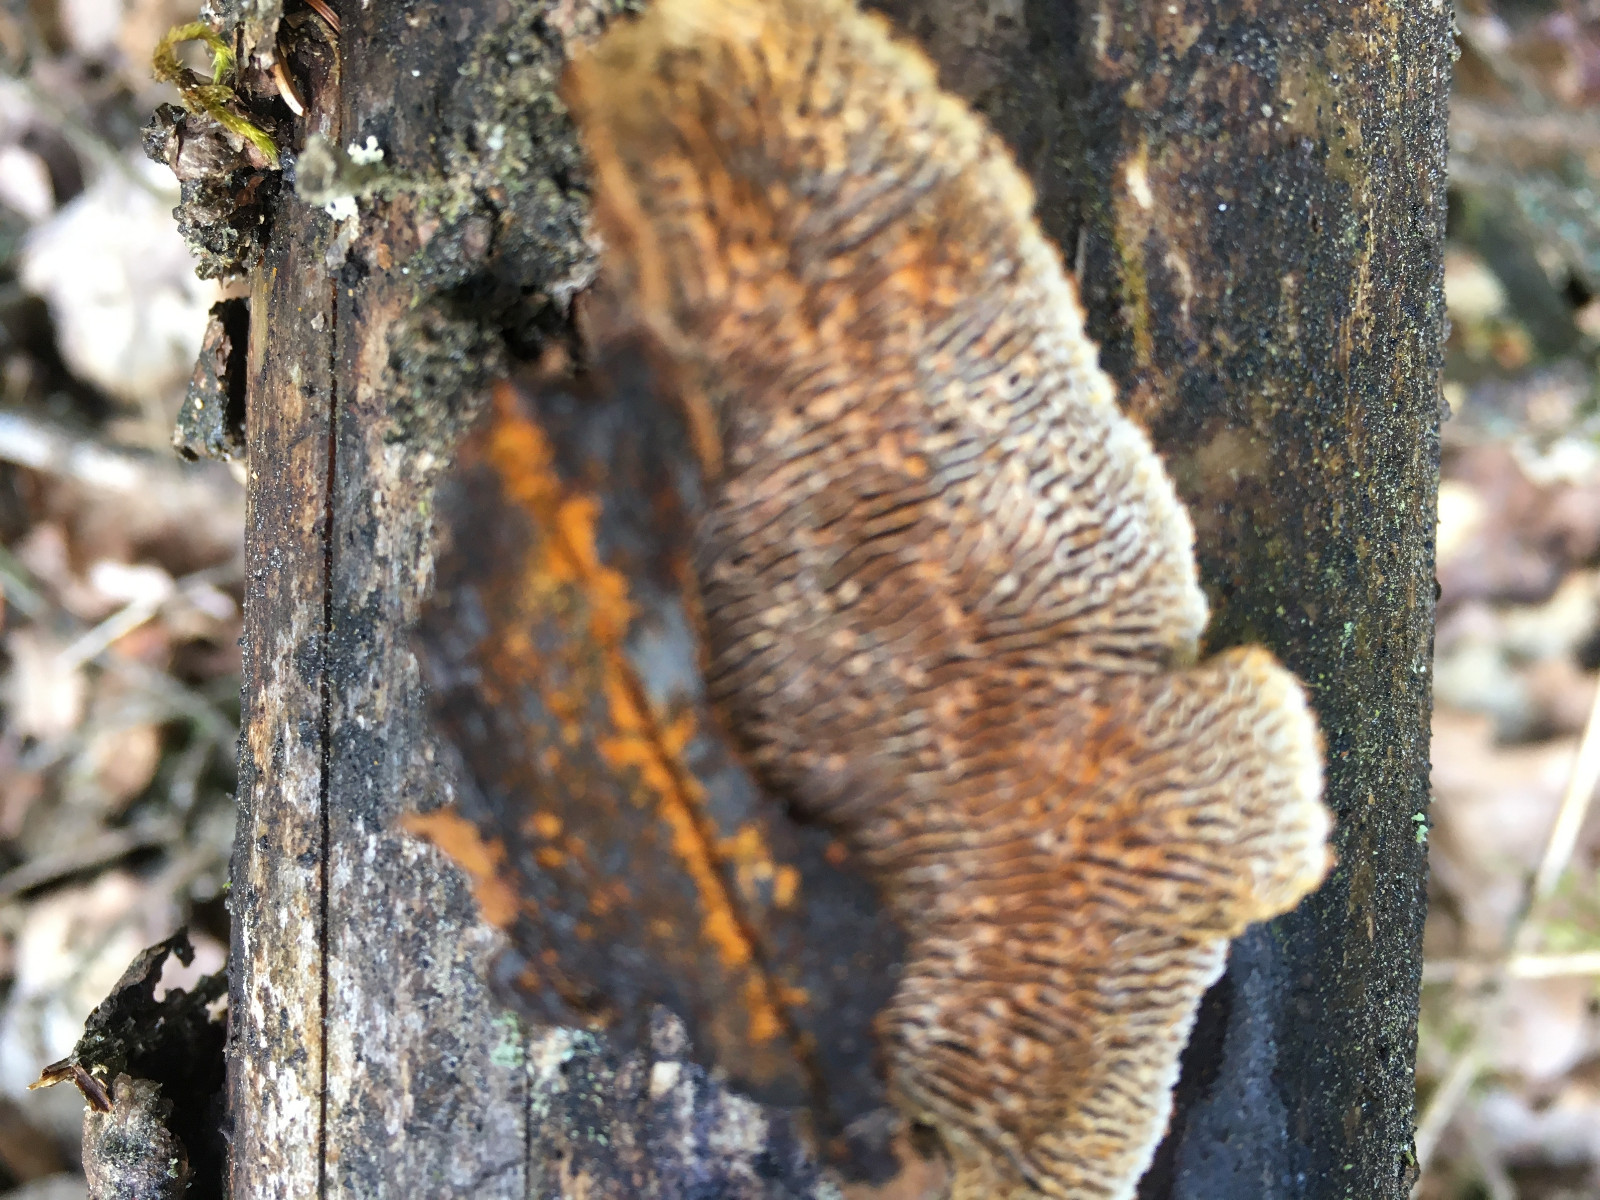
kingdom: Fungi
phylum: Basidiomycota
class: Agaricomycetes
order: Gloeophyllales
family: Gloeophyllaceae
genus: Gloeophyllum
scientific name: Gloeophyllum sepiarium
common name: fyrre-korkhat
